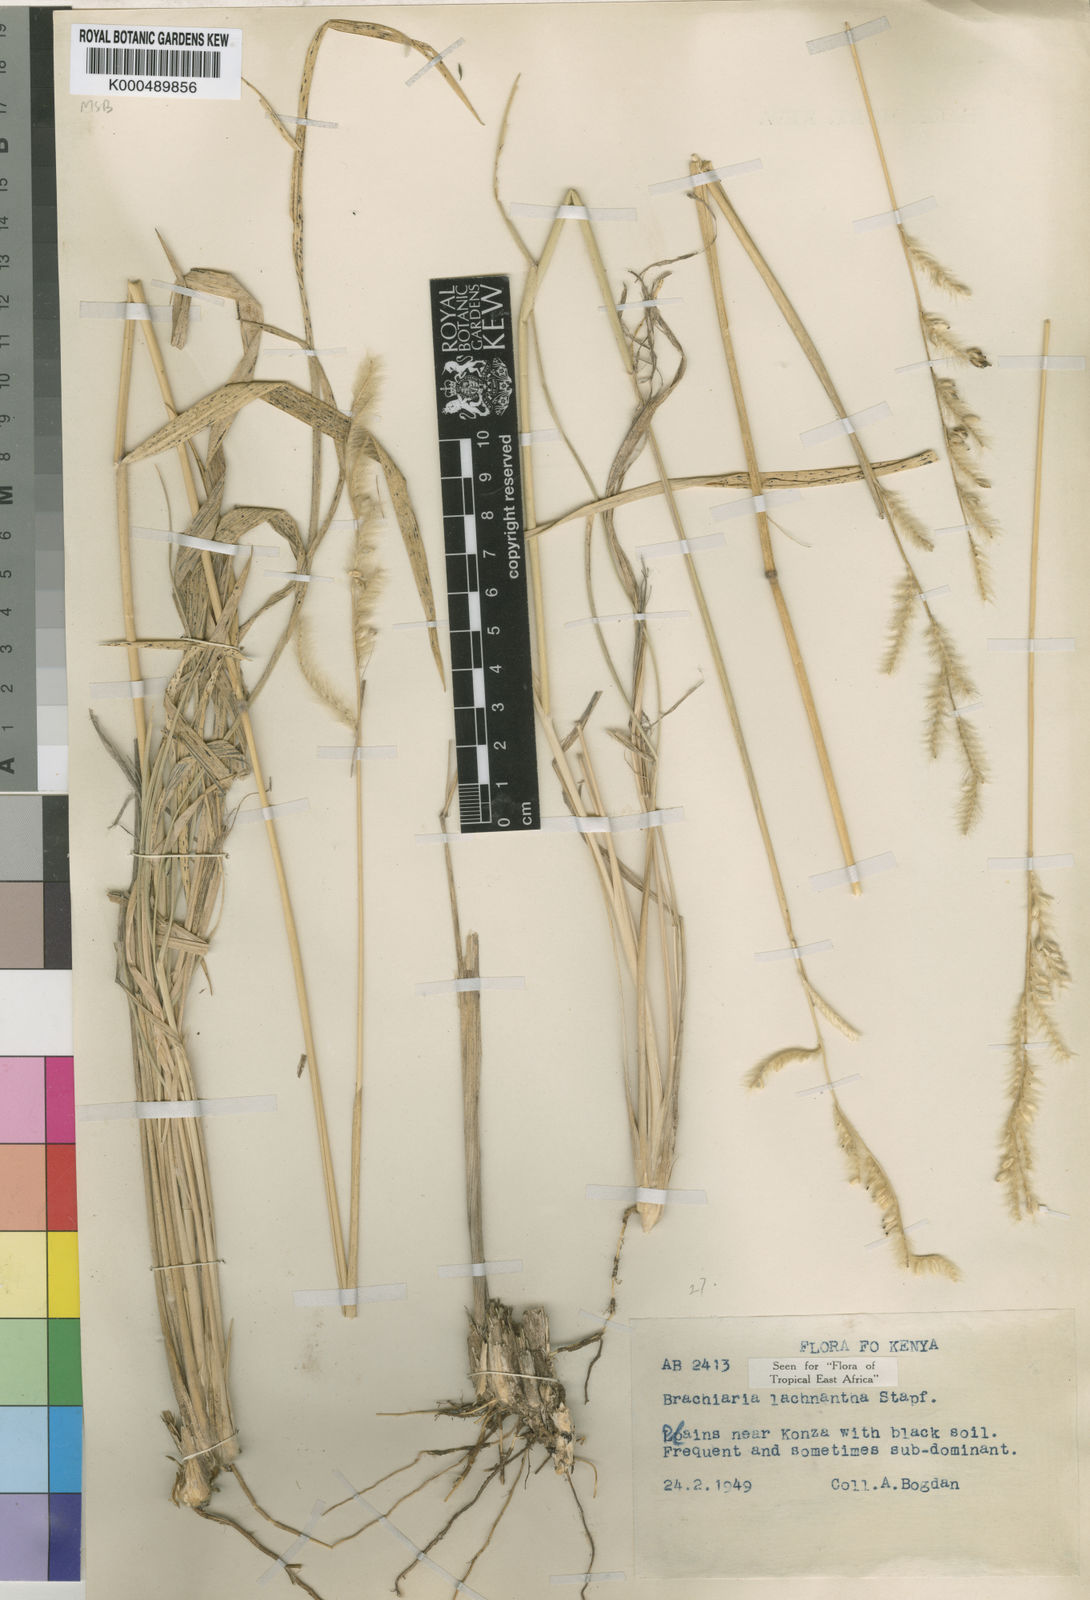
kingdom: Plantae
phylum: Tracheophyta
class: Liliopsida
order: Poales
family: Poaceae
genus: Urochloa
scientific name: Urochloa lachnantha
